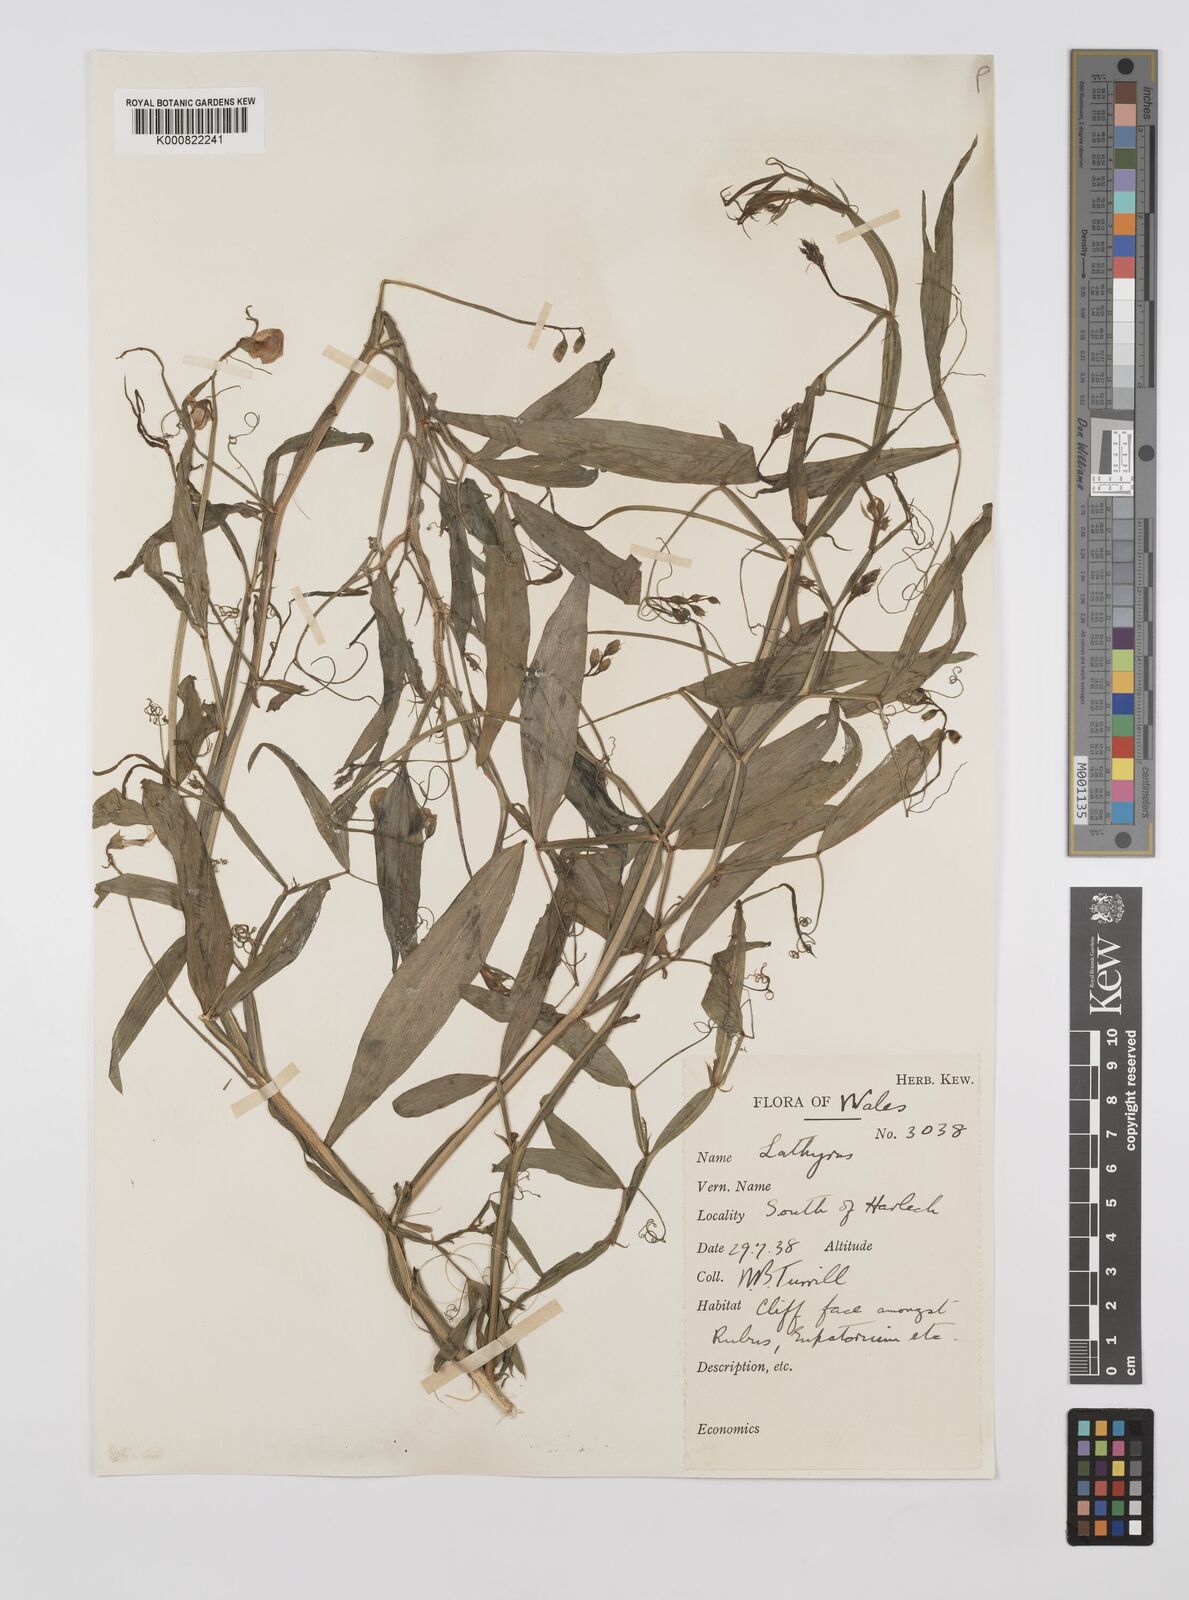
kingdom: Plantae
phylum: Tracheophyta
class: Magnoliopsida
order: Fabales
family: Fabaceae
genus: Lathyrus
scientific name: Lathyrus sylvestris
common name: Flat pea
